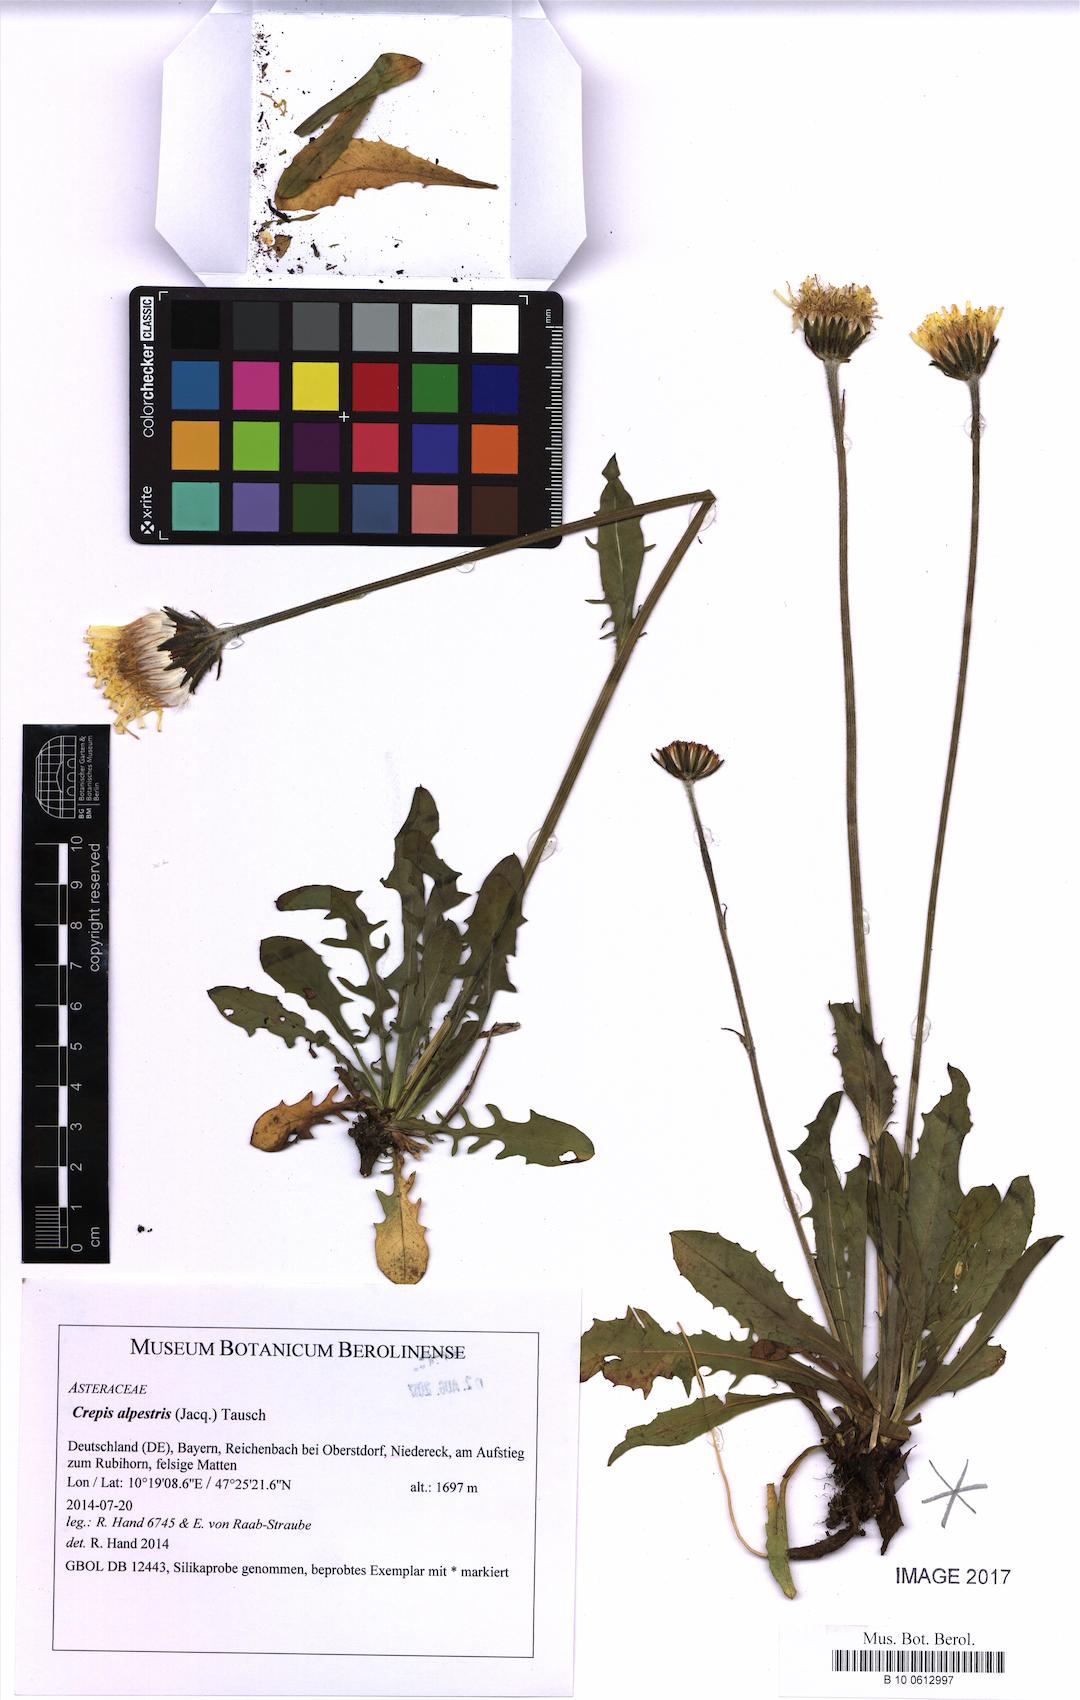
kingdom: Plantae
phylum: Tracheophyta
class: Magnoliopsida
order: Asterales
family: Asteraceae
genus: Crepis
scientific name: Crepis alpestris
